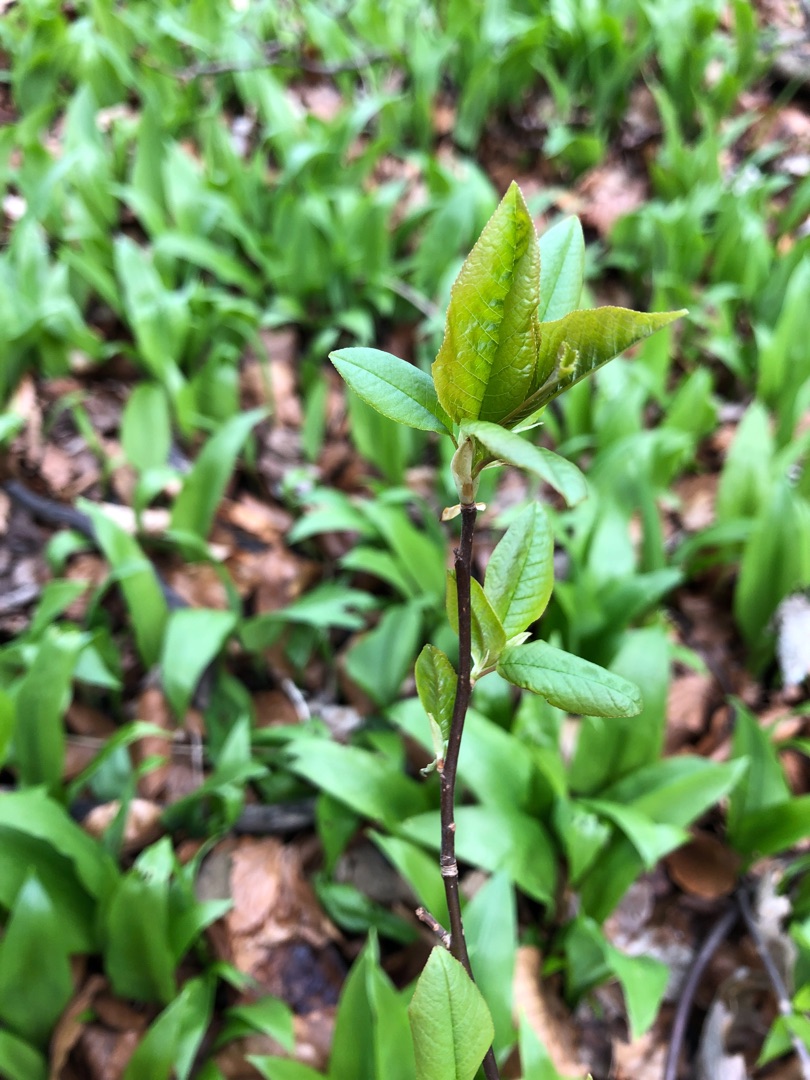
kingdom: Plantae
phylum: Tracheophyta
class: Magnoliopsida
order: Rosales
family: Rosaceae
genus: Prunus
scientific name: Prunus padus
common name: Almindelig hæg
